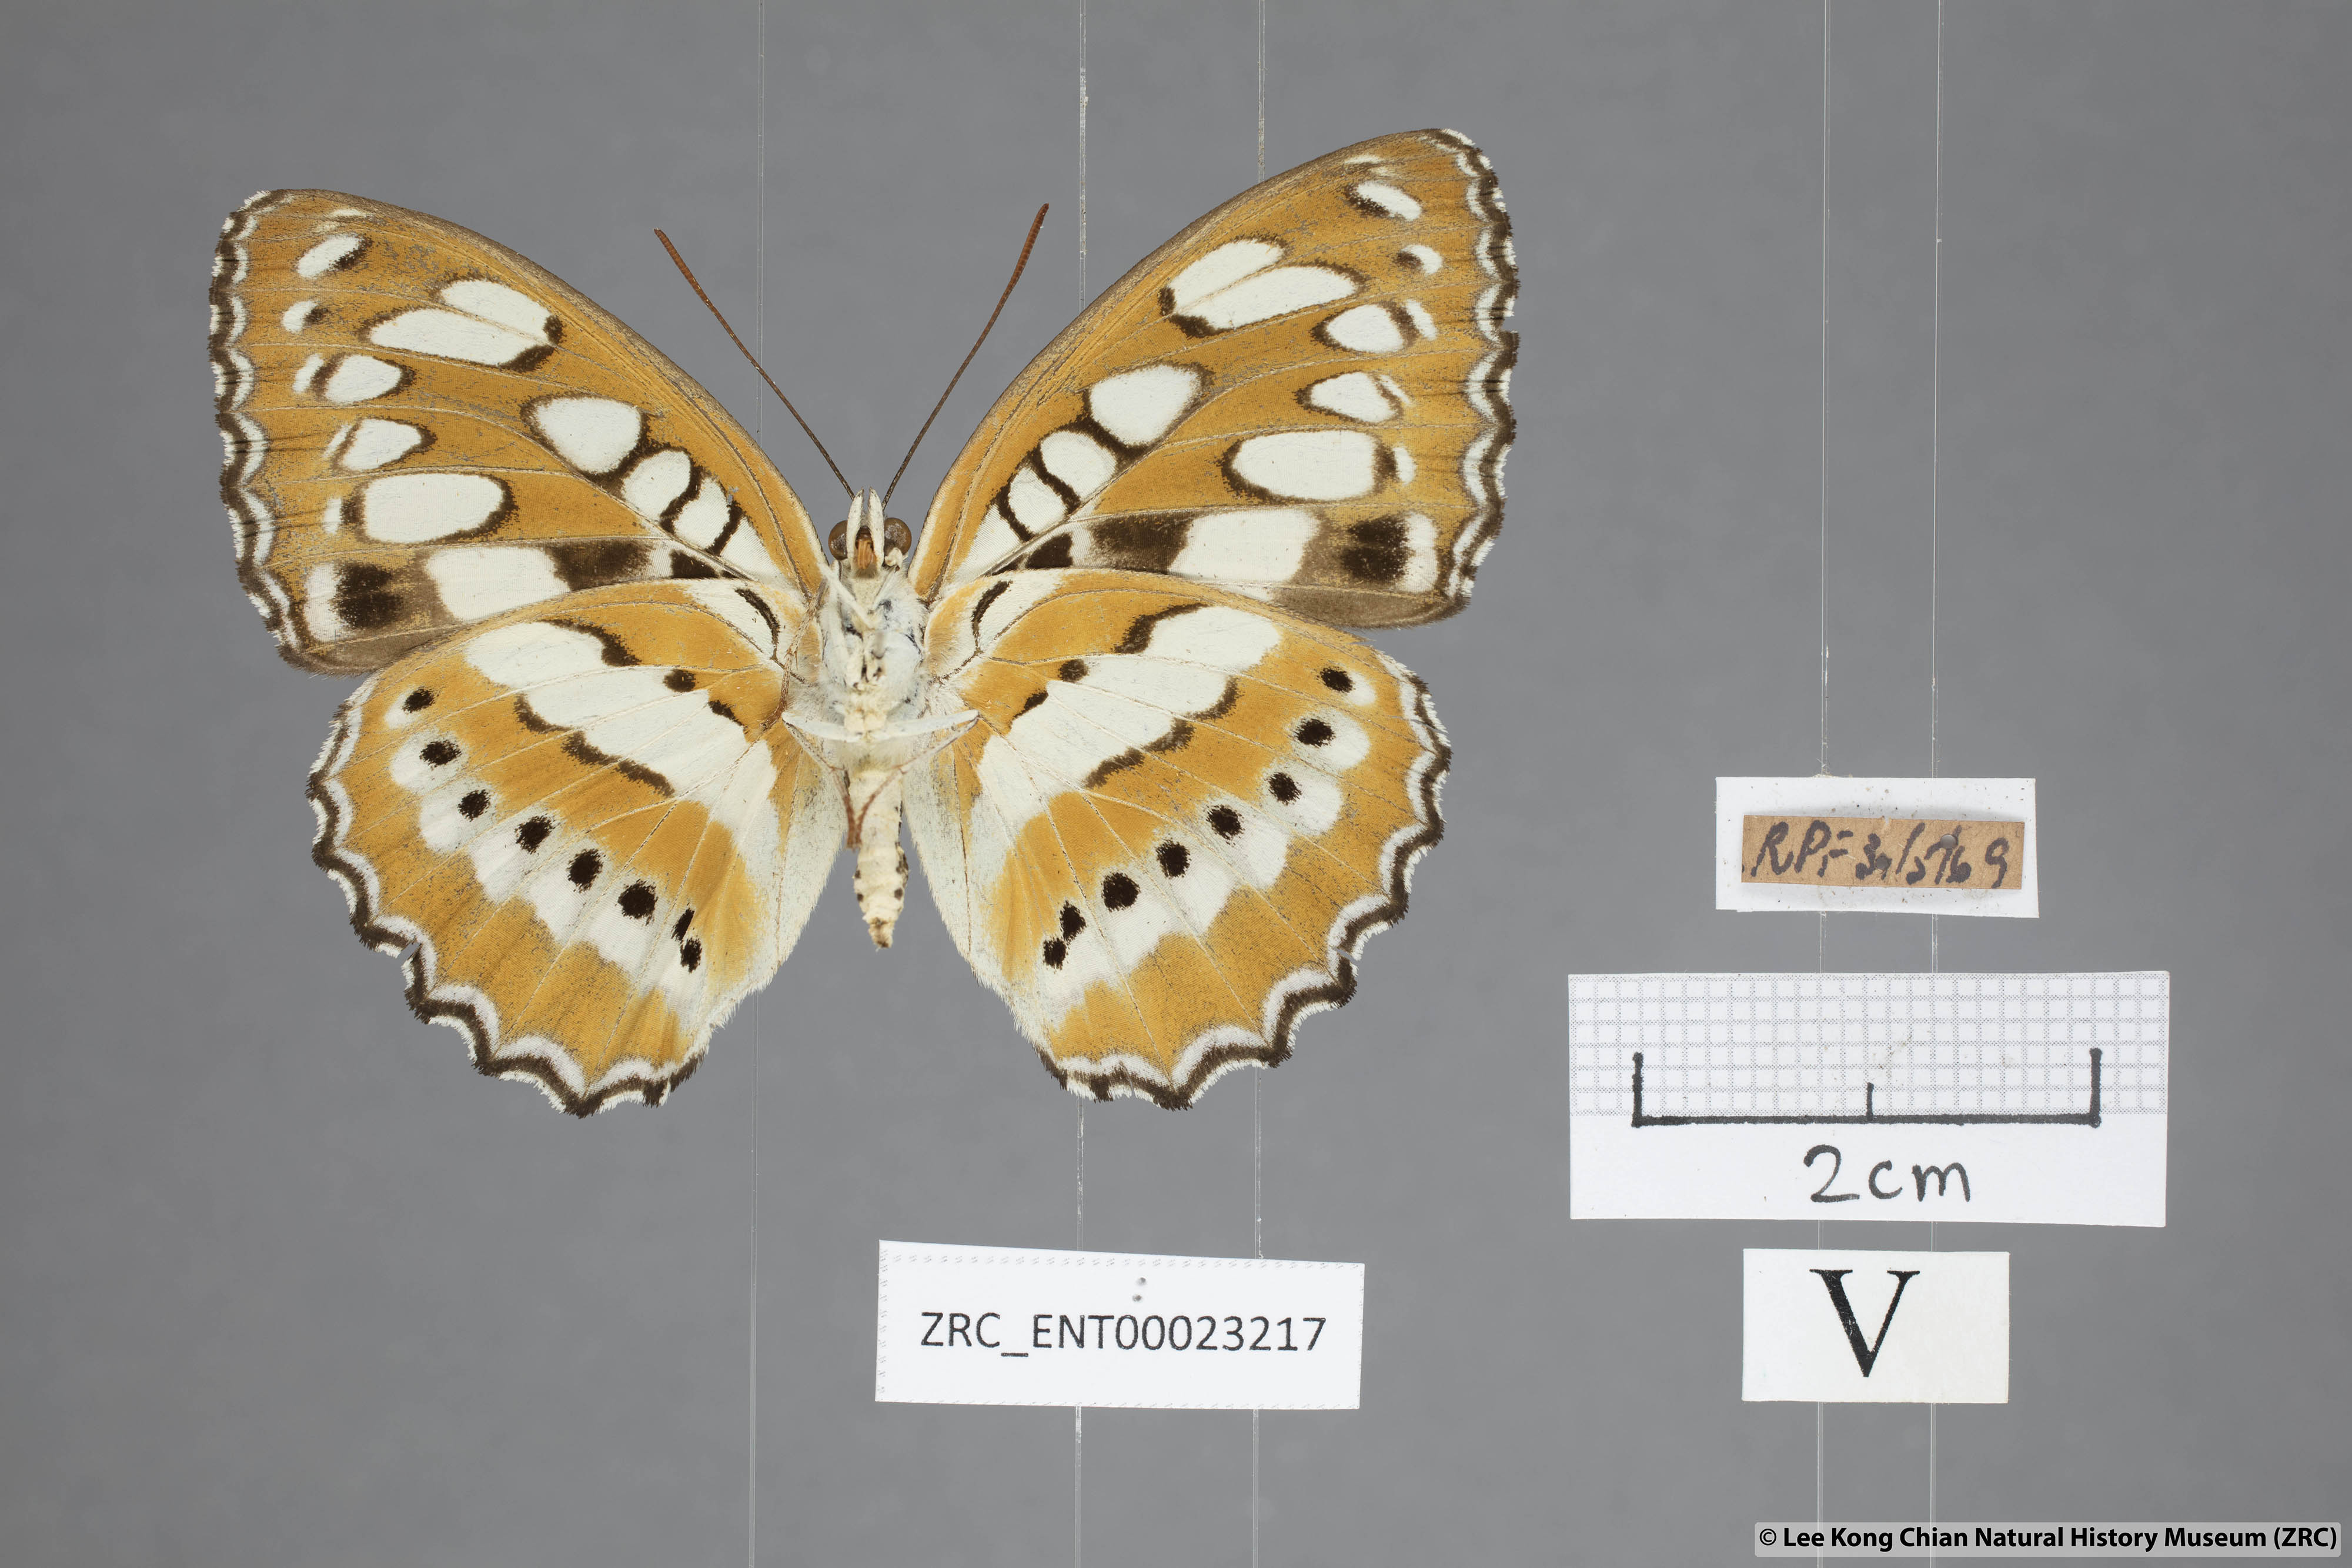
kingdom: Animalia
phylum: Arthropoda
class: Insecta
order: Lepidoptera
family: Nymphalidae
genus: Parathyma
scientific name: Parathyma perius
